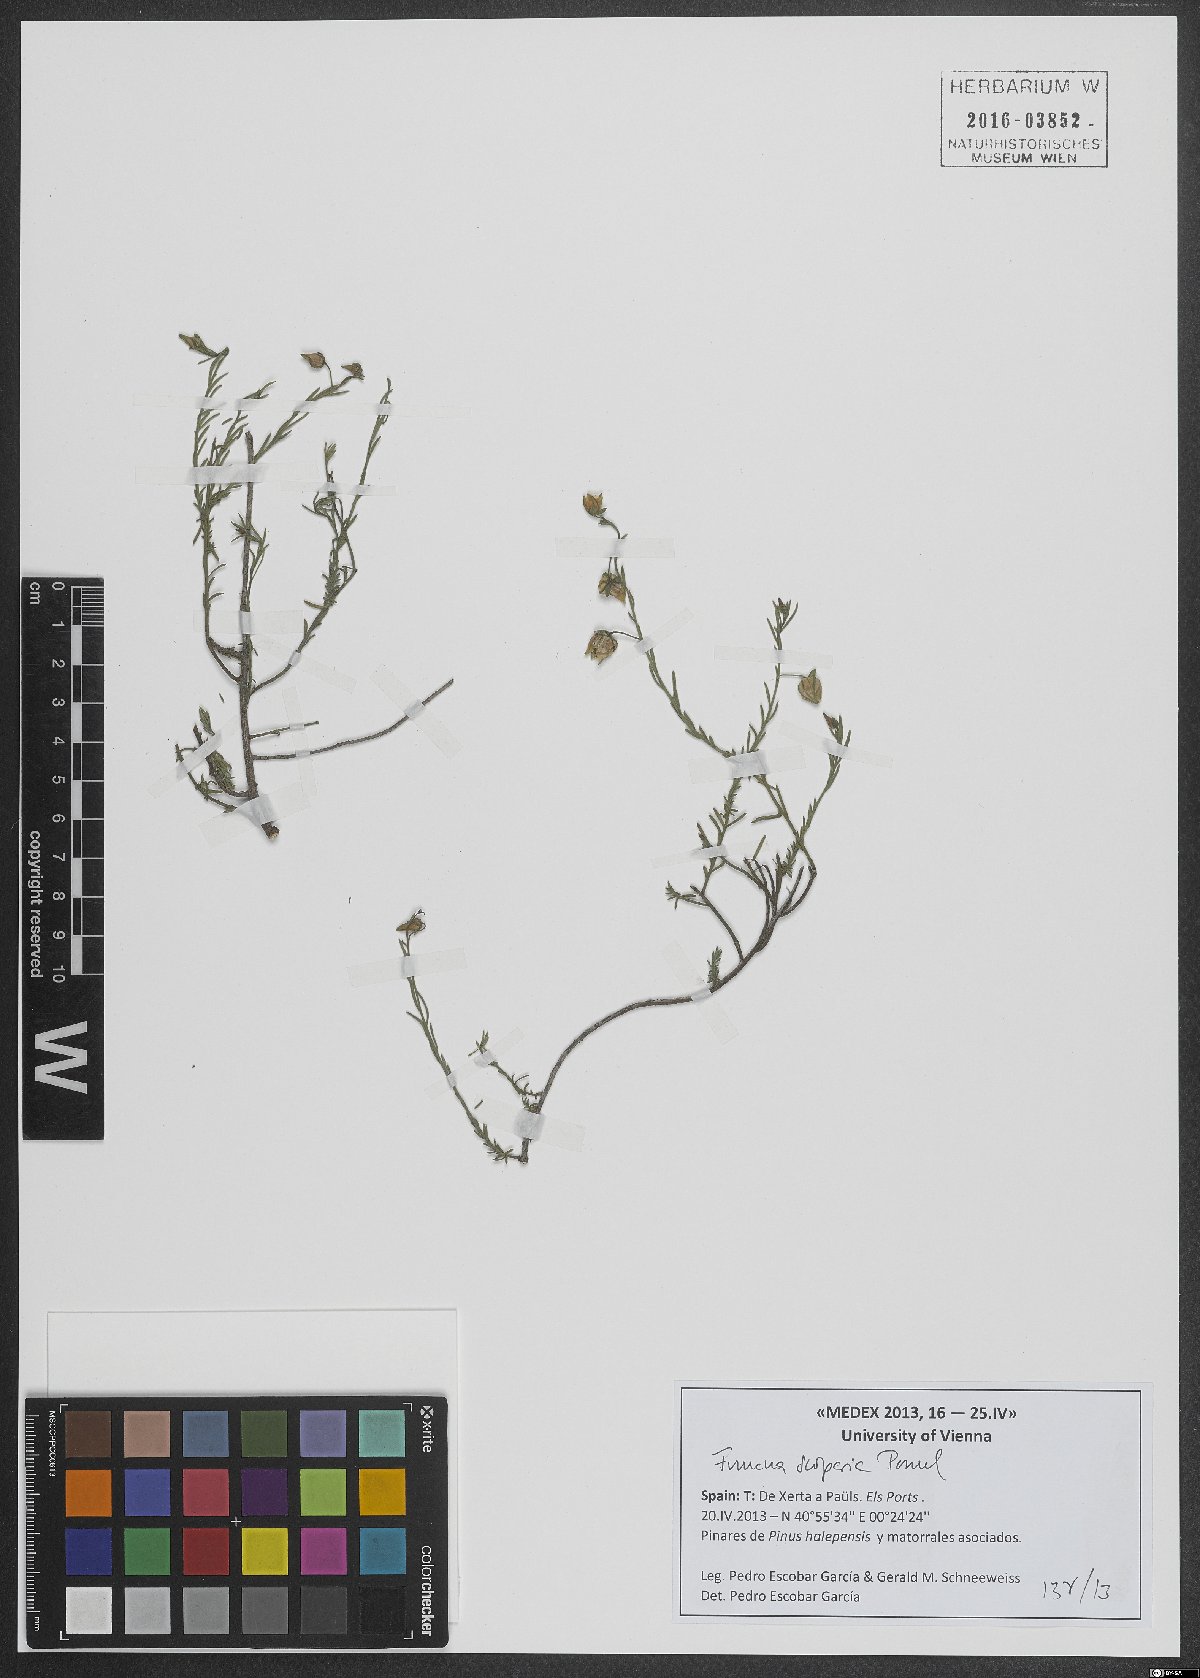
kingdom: Plantae
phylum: Tracheophyta
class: Magnoliopsida
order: Malvales
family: Cistaceae
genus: Fumana
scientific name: Fumana scoparia
